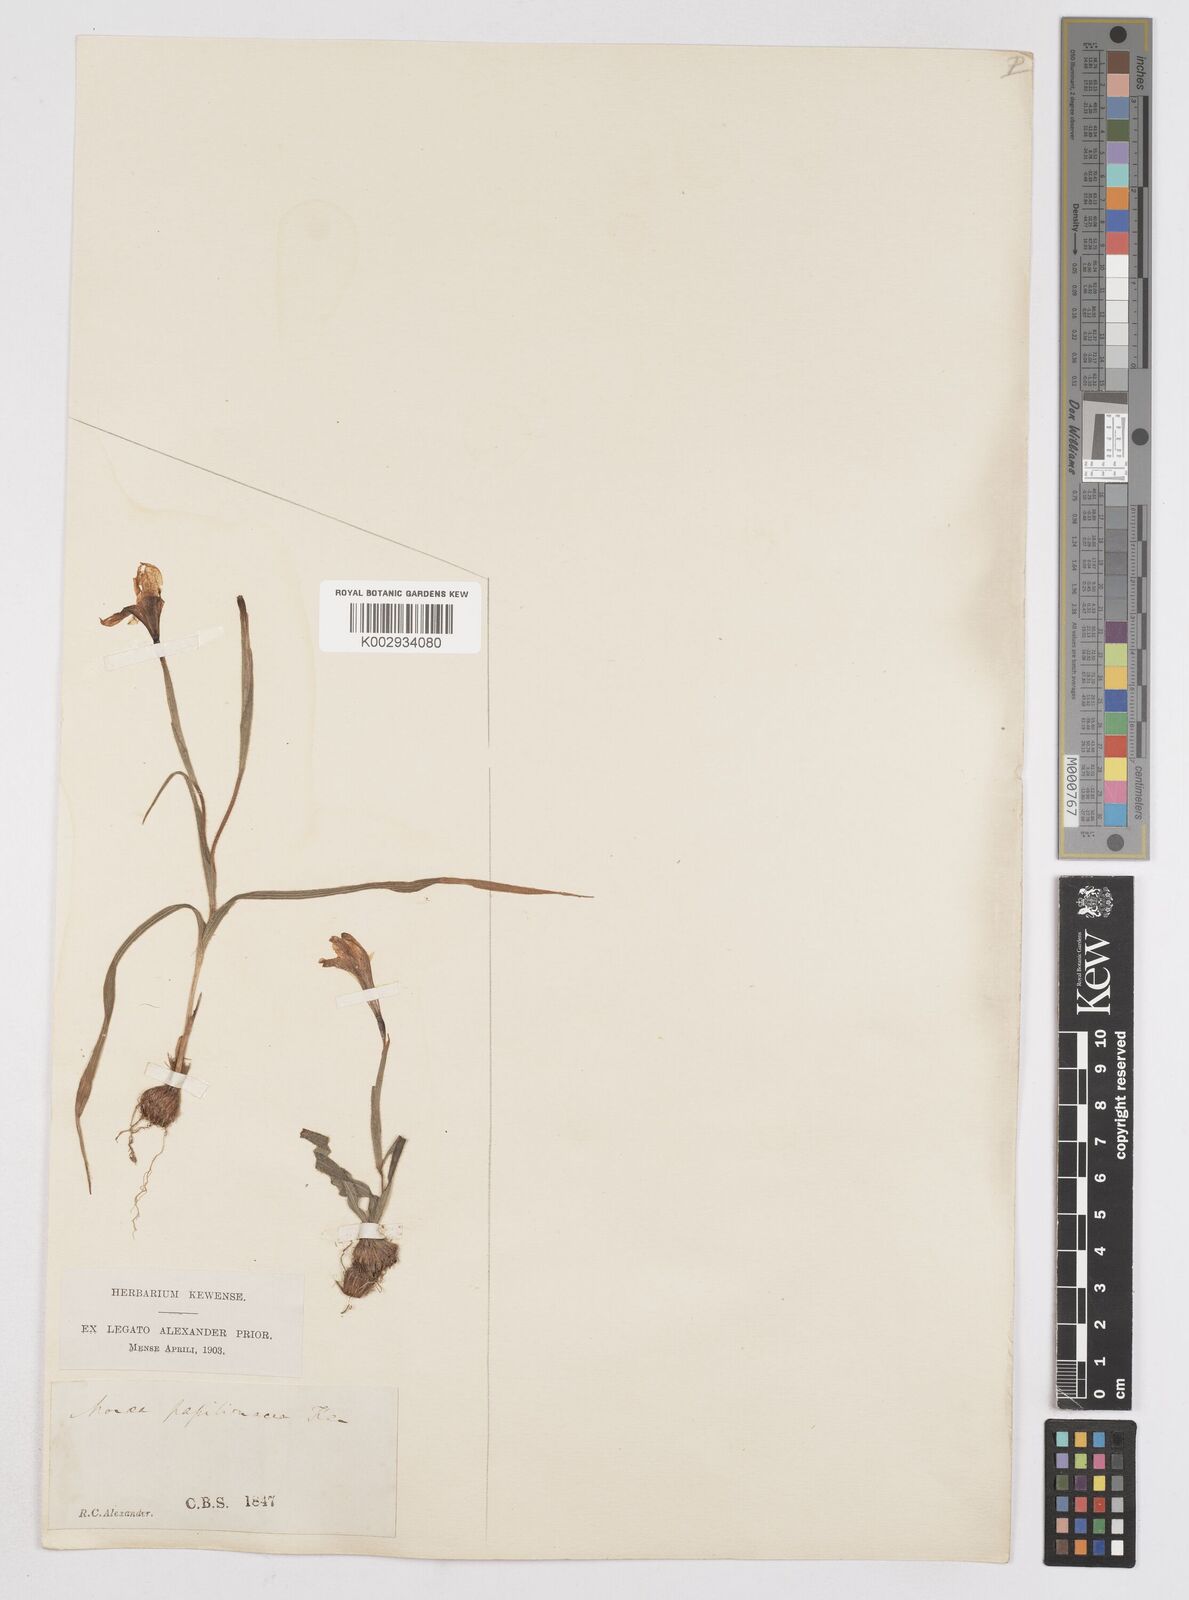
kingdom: Plantae
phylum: Tracheophyta
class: Liliopsida
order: Asparagales
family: Iridaceae
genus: Moraea
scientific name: Moraea papilionacea
